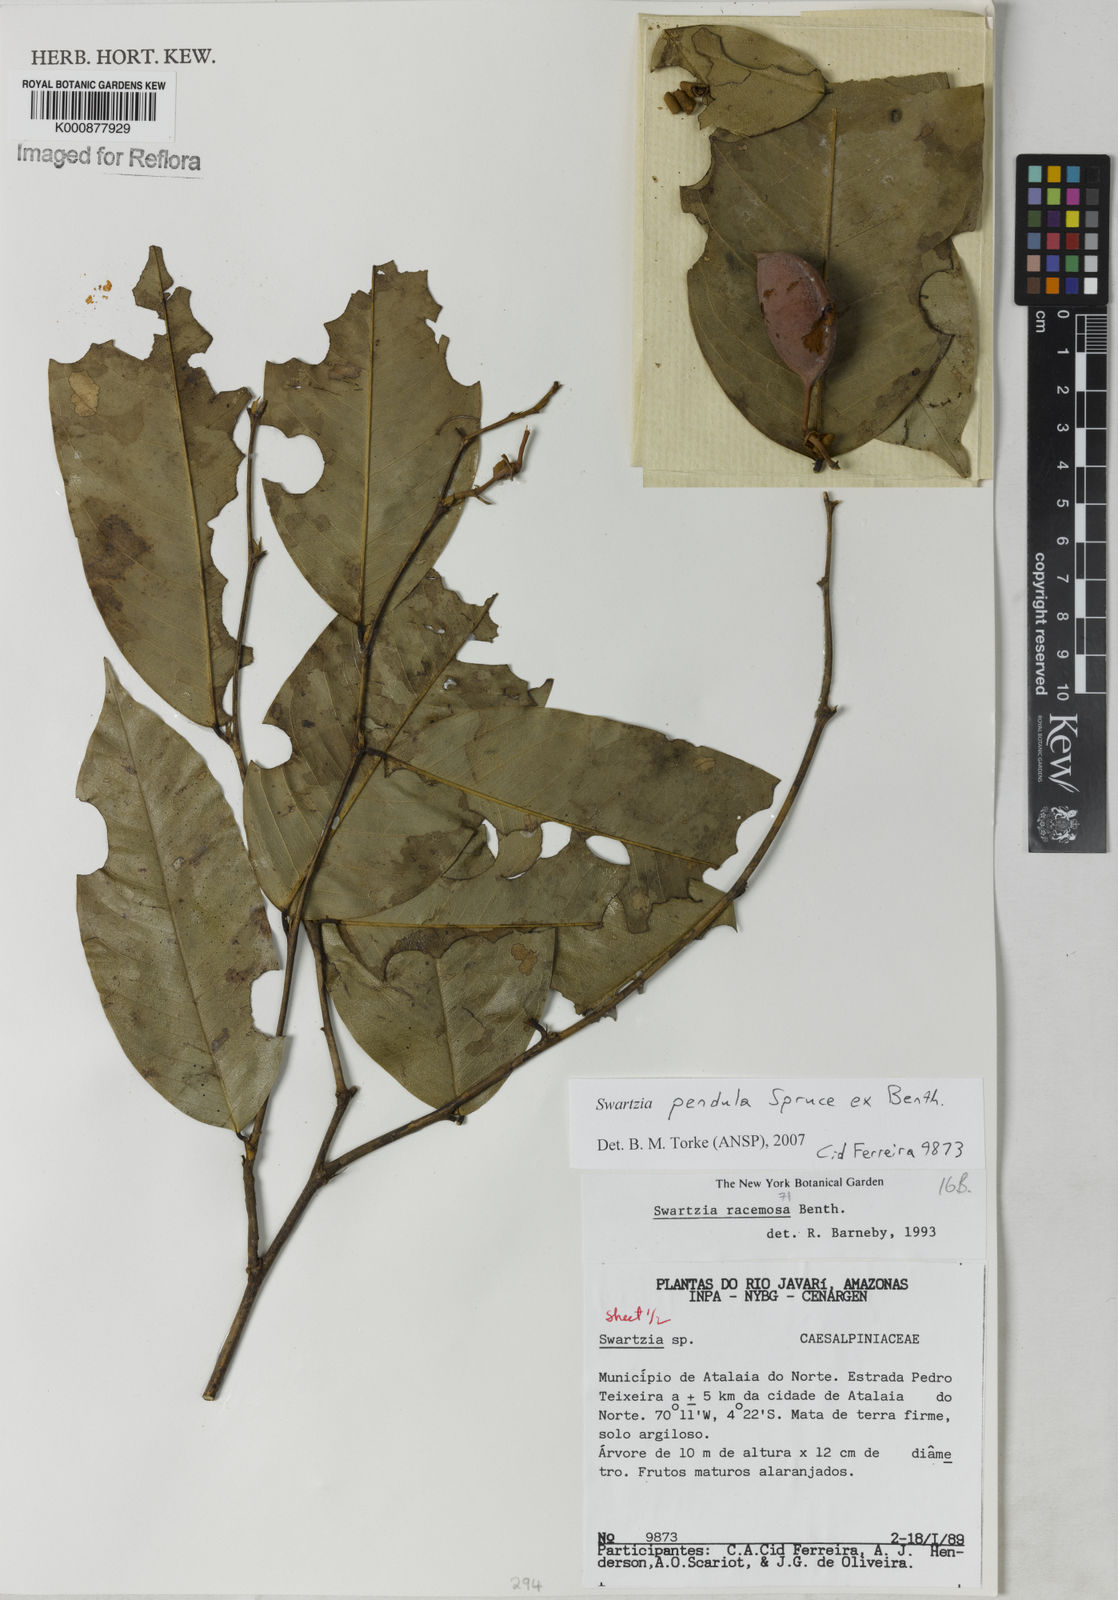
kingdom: Plantae
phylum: Tracheophyta
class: Magnoliopsida
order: Fabales
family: Fabaceae
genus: Swartzia
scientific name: Swartzia pendula
